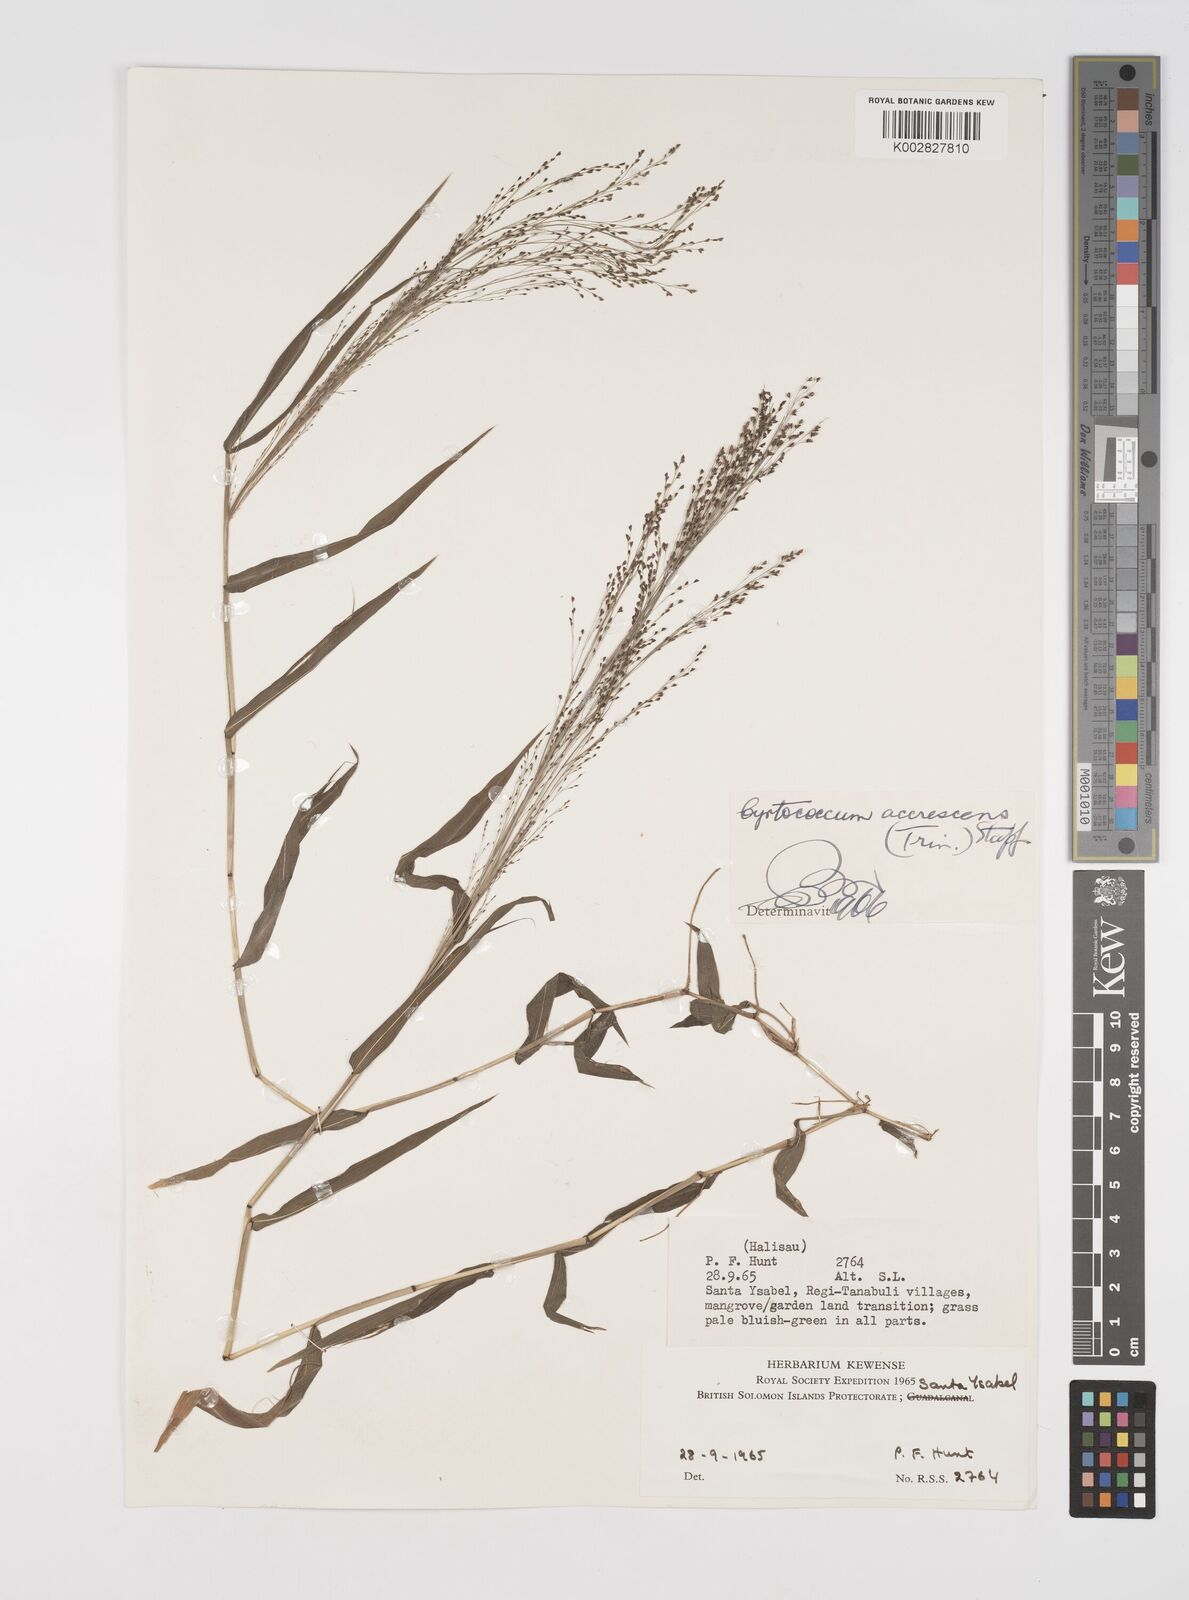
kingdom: Plantae
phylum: Tracheophyta
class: Liliopsida
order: Poales
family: Poaceae
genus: Cyrtococcum
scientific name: Cyrtococcum accrescens
